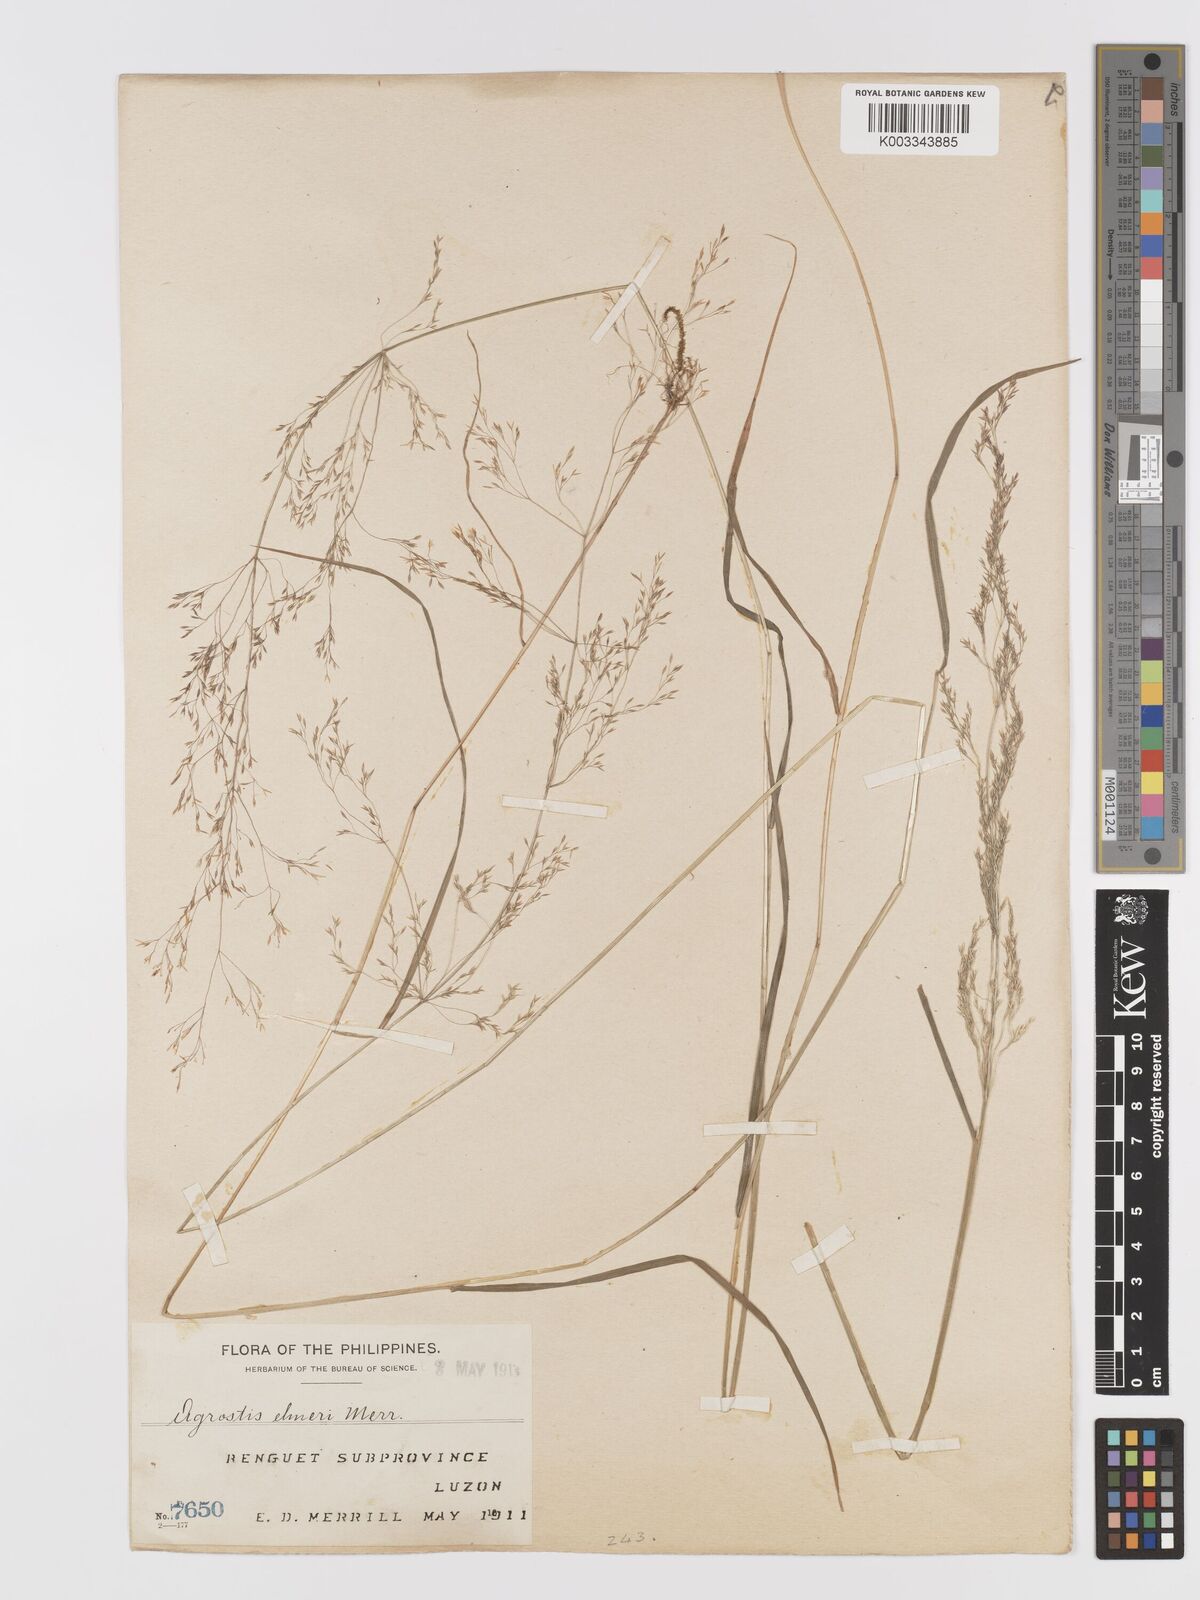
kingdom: Plantae
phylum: Tracheophyta
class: Liliopsida
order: Poales
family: Poaceae
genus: Agrostis
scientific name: Agrostis infirma
